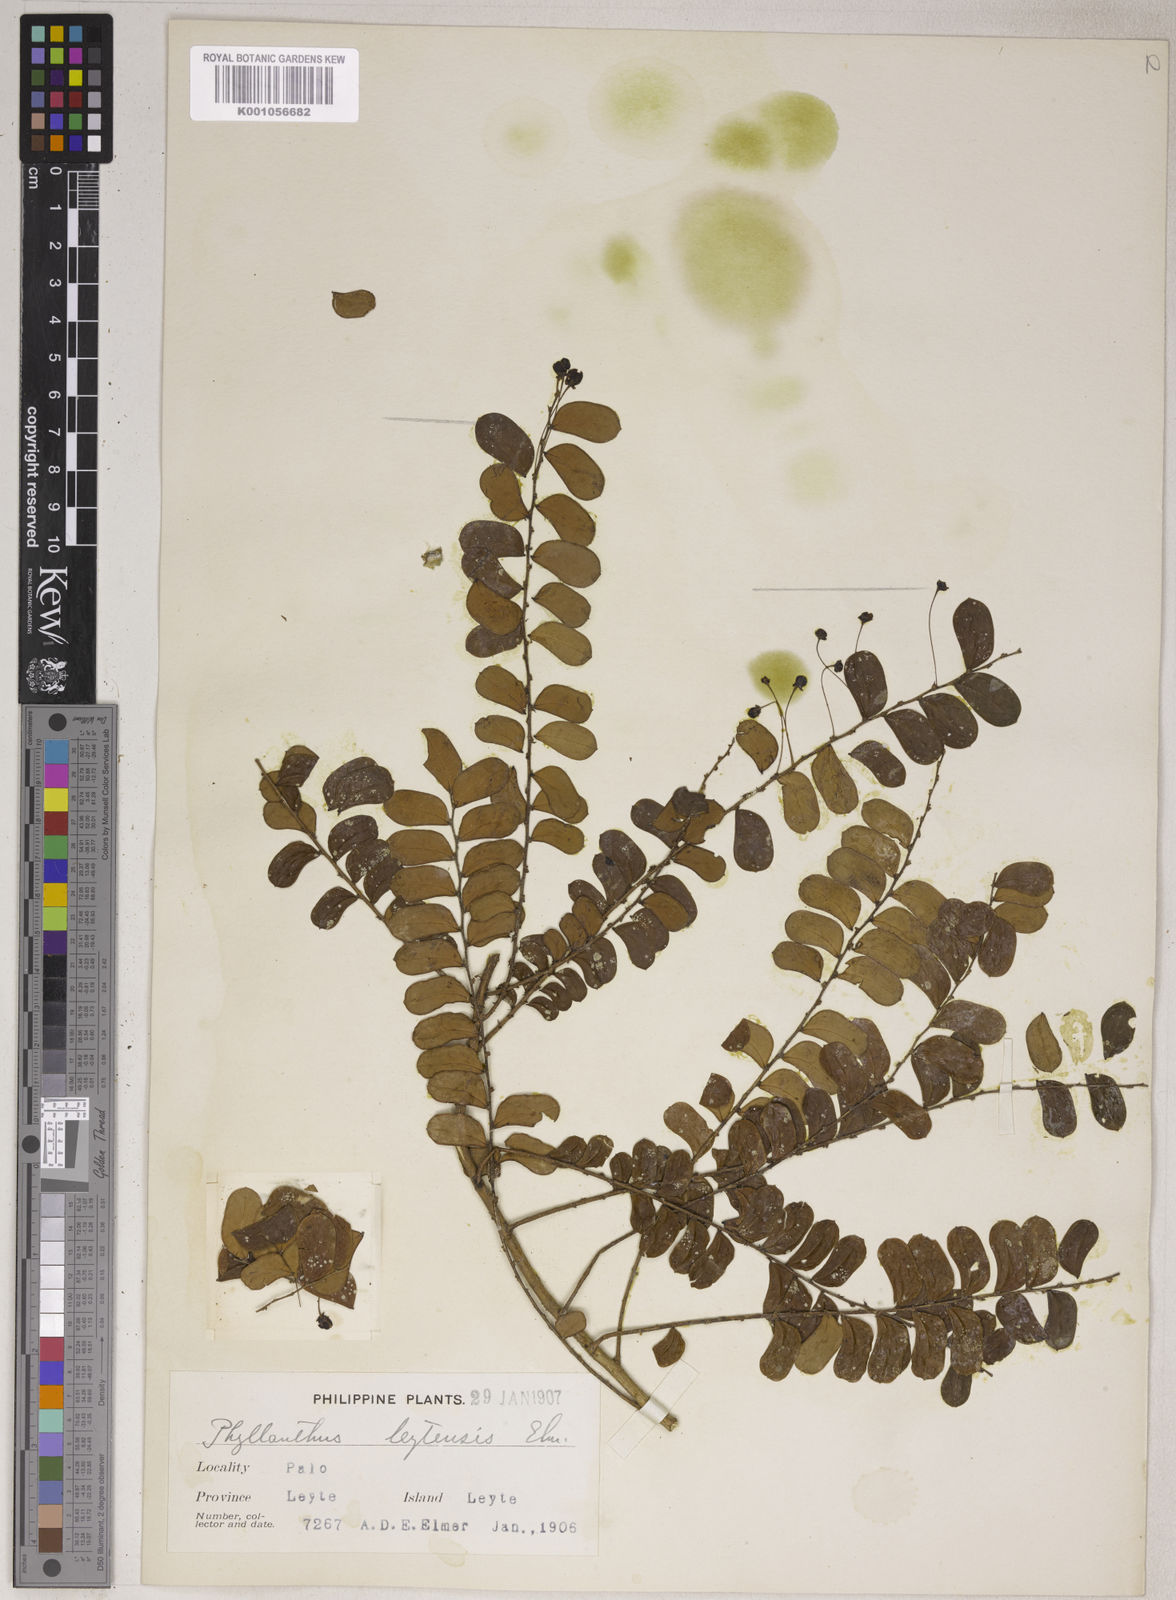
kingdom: Plantae
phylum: Tracheophyta
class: Magnoliopsida
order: Malpighiales
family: Phyllanthaceae
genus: Phyllanthus
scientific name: Phyllanthus leytensis
